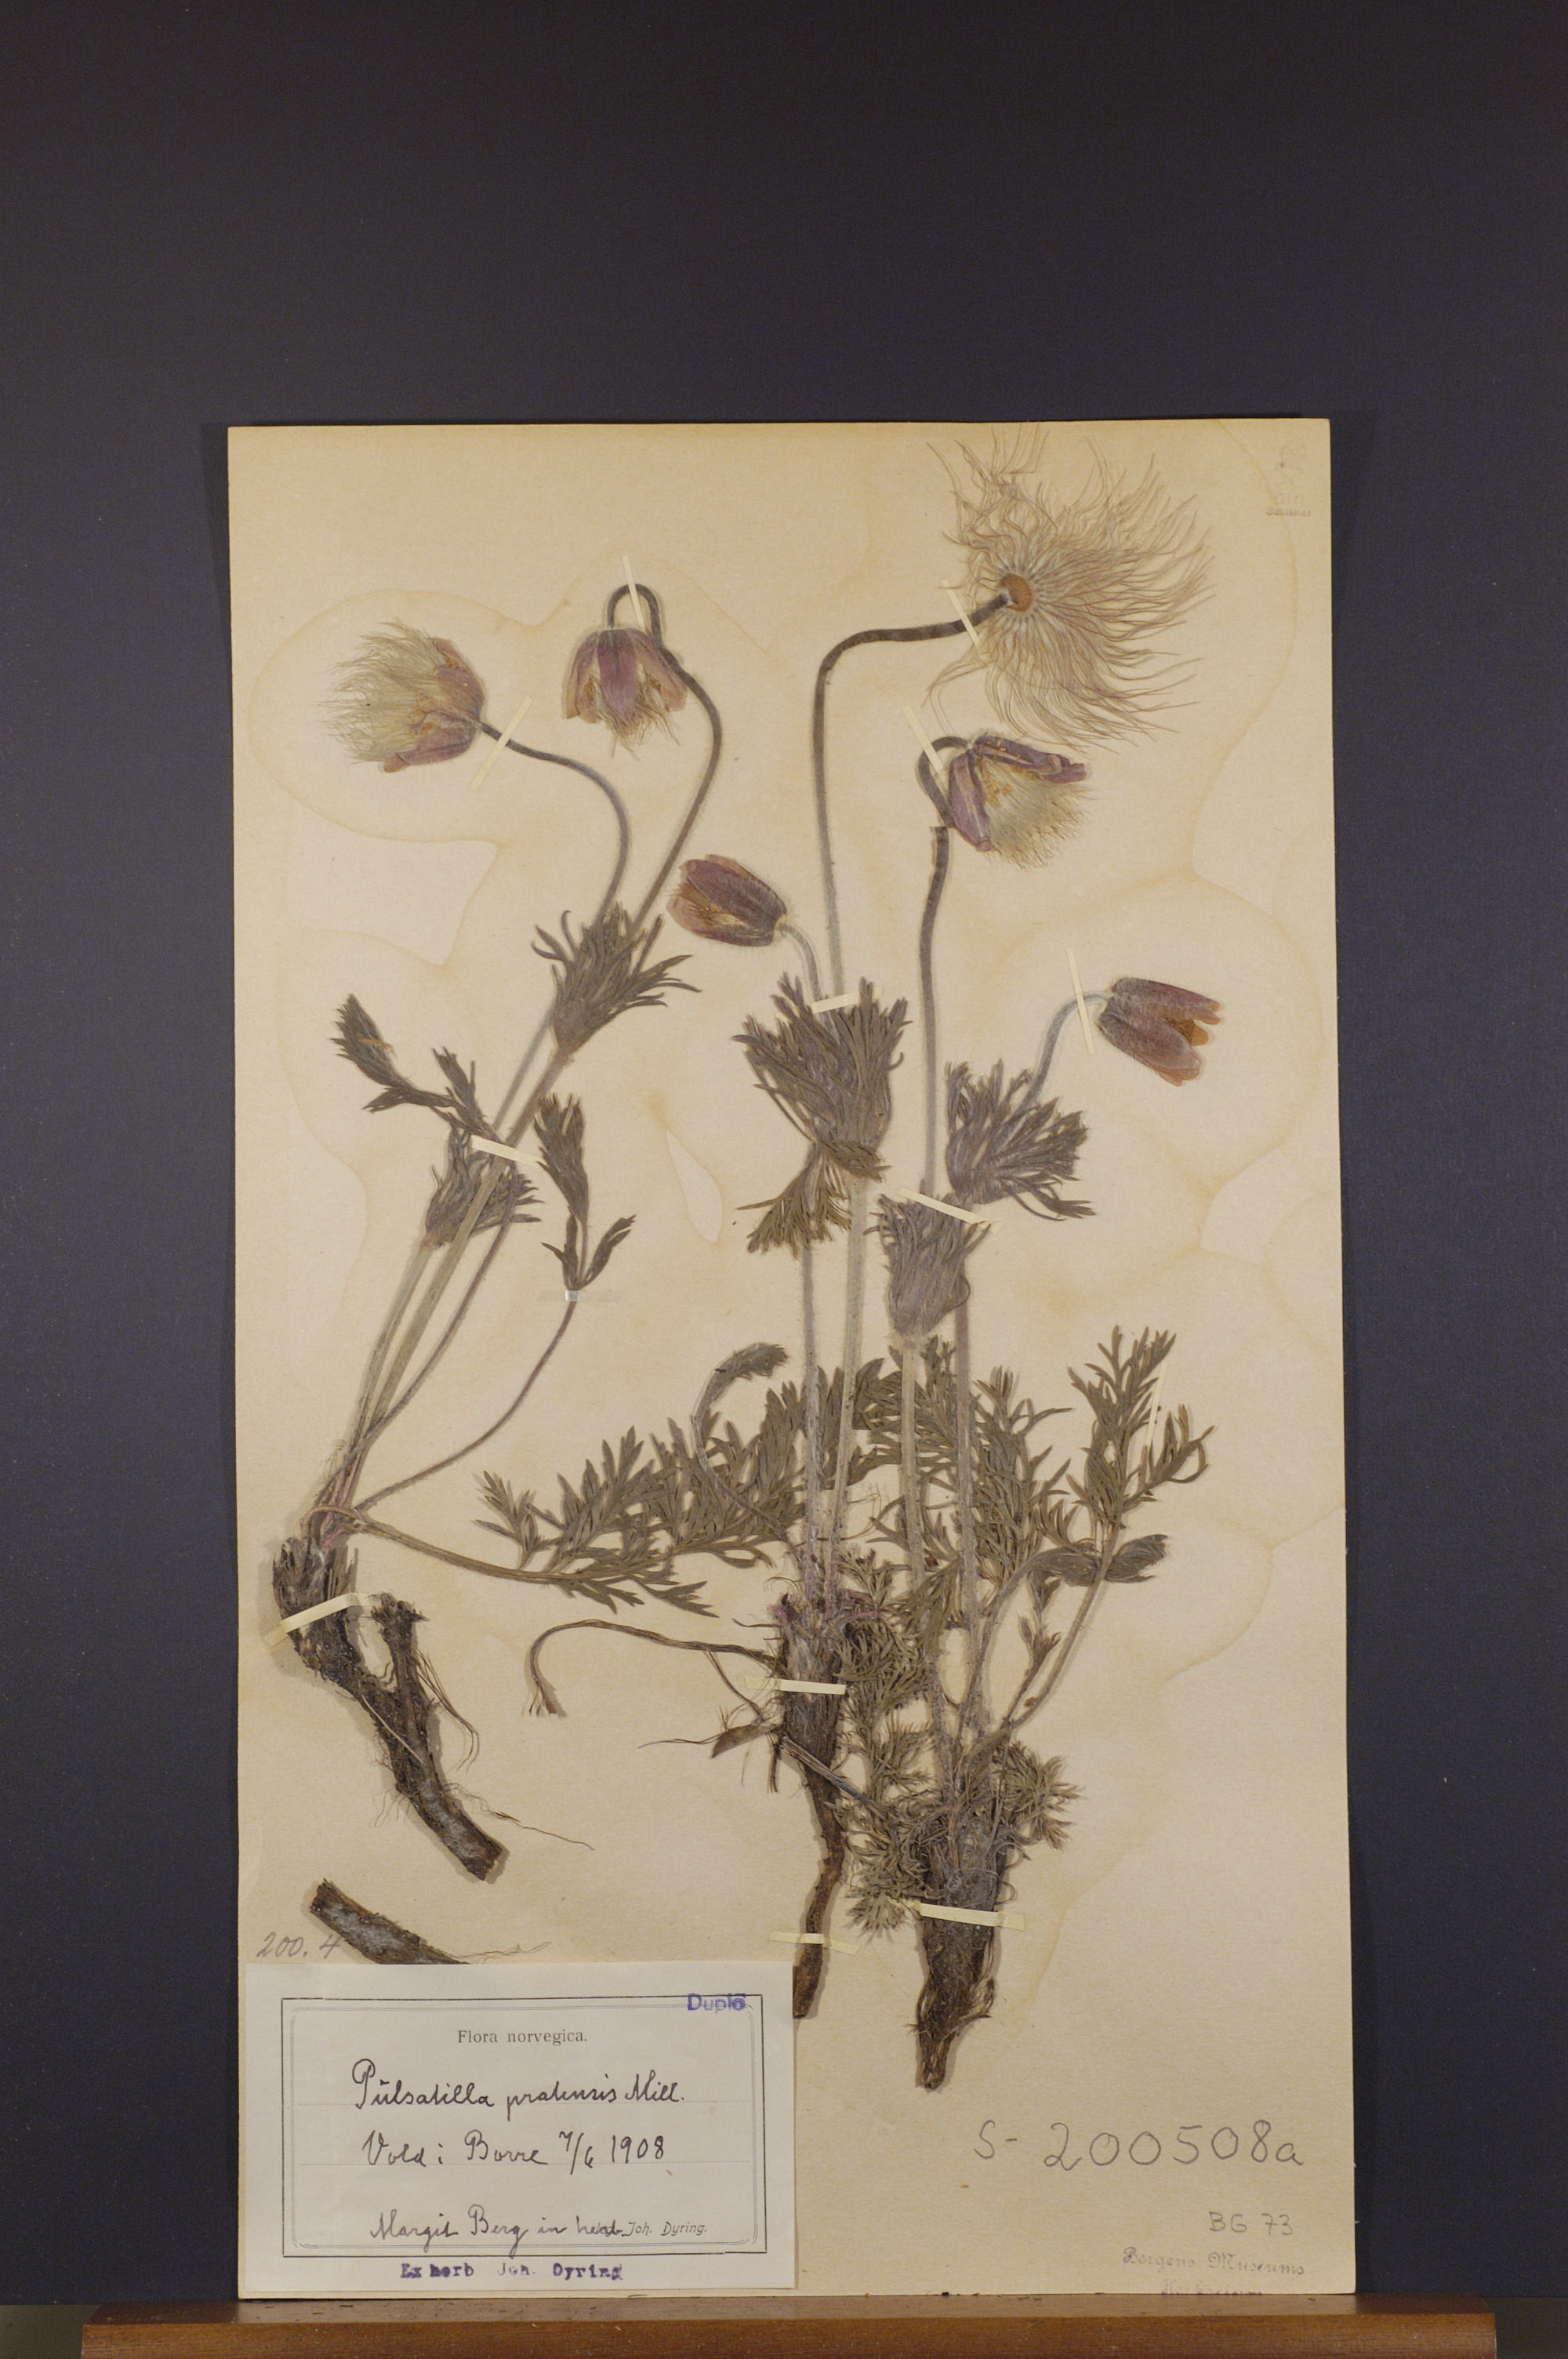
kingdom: Plantae
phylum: Tracheophyta
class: Magnoliopsida
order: Ranunculales
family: Ranunculaceae
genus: Pulsatilla
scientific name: Pulsatilla pratensis
